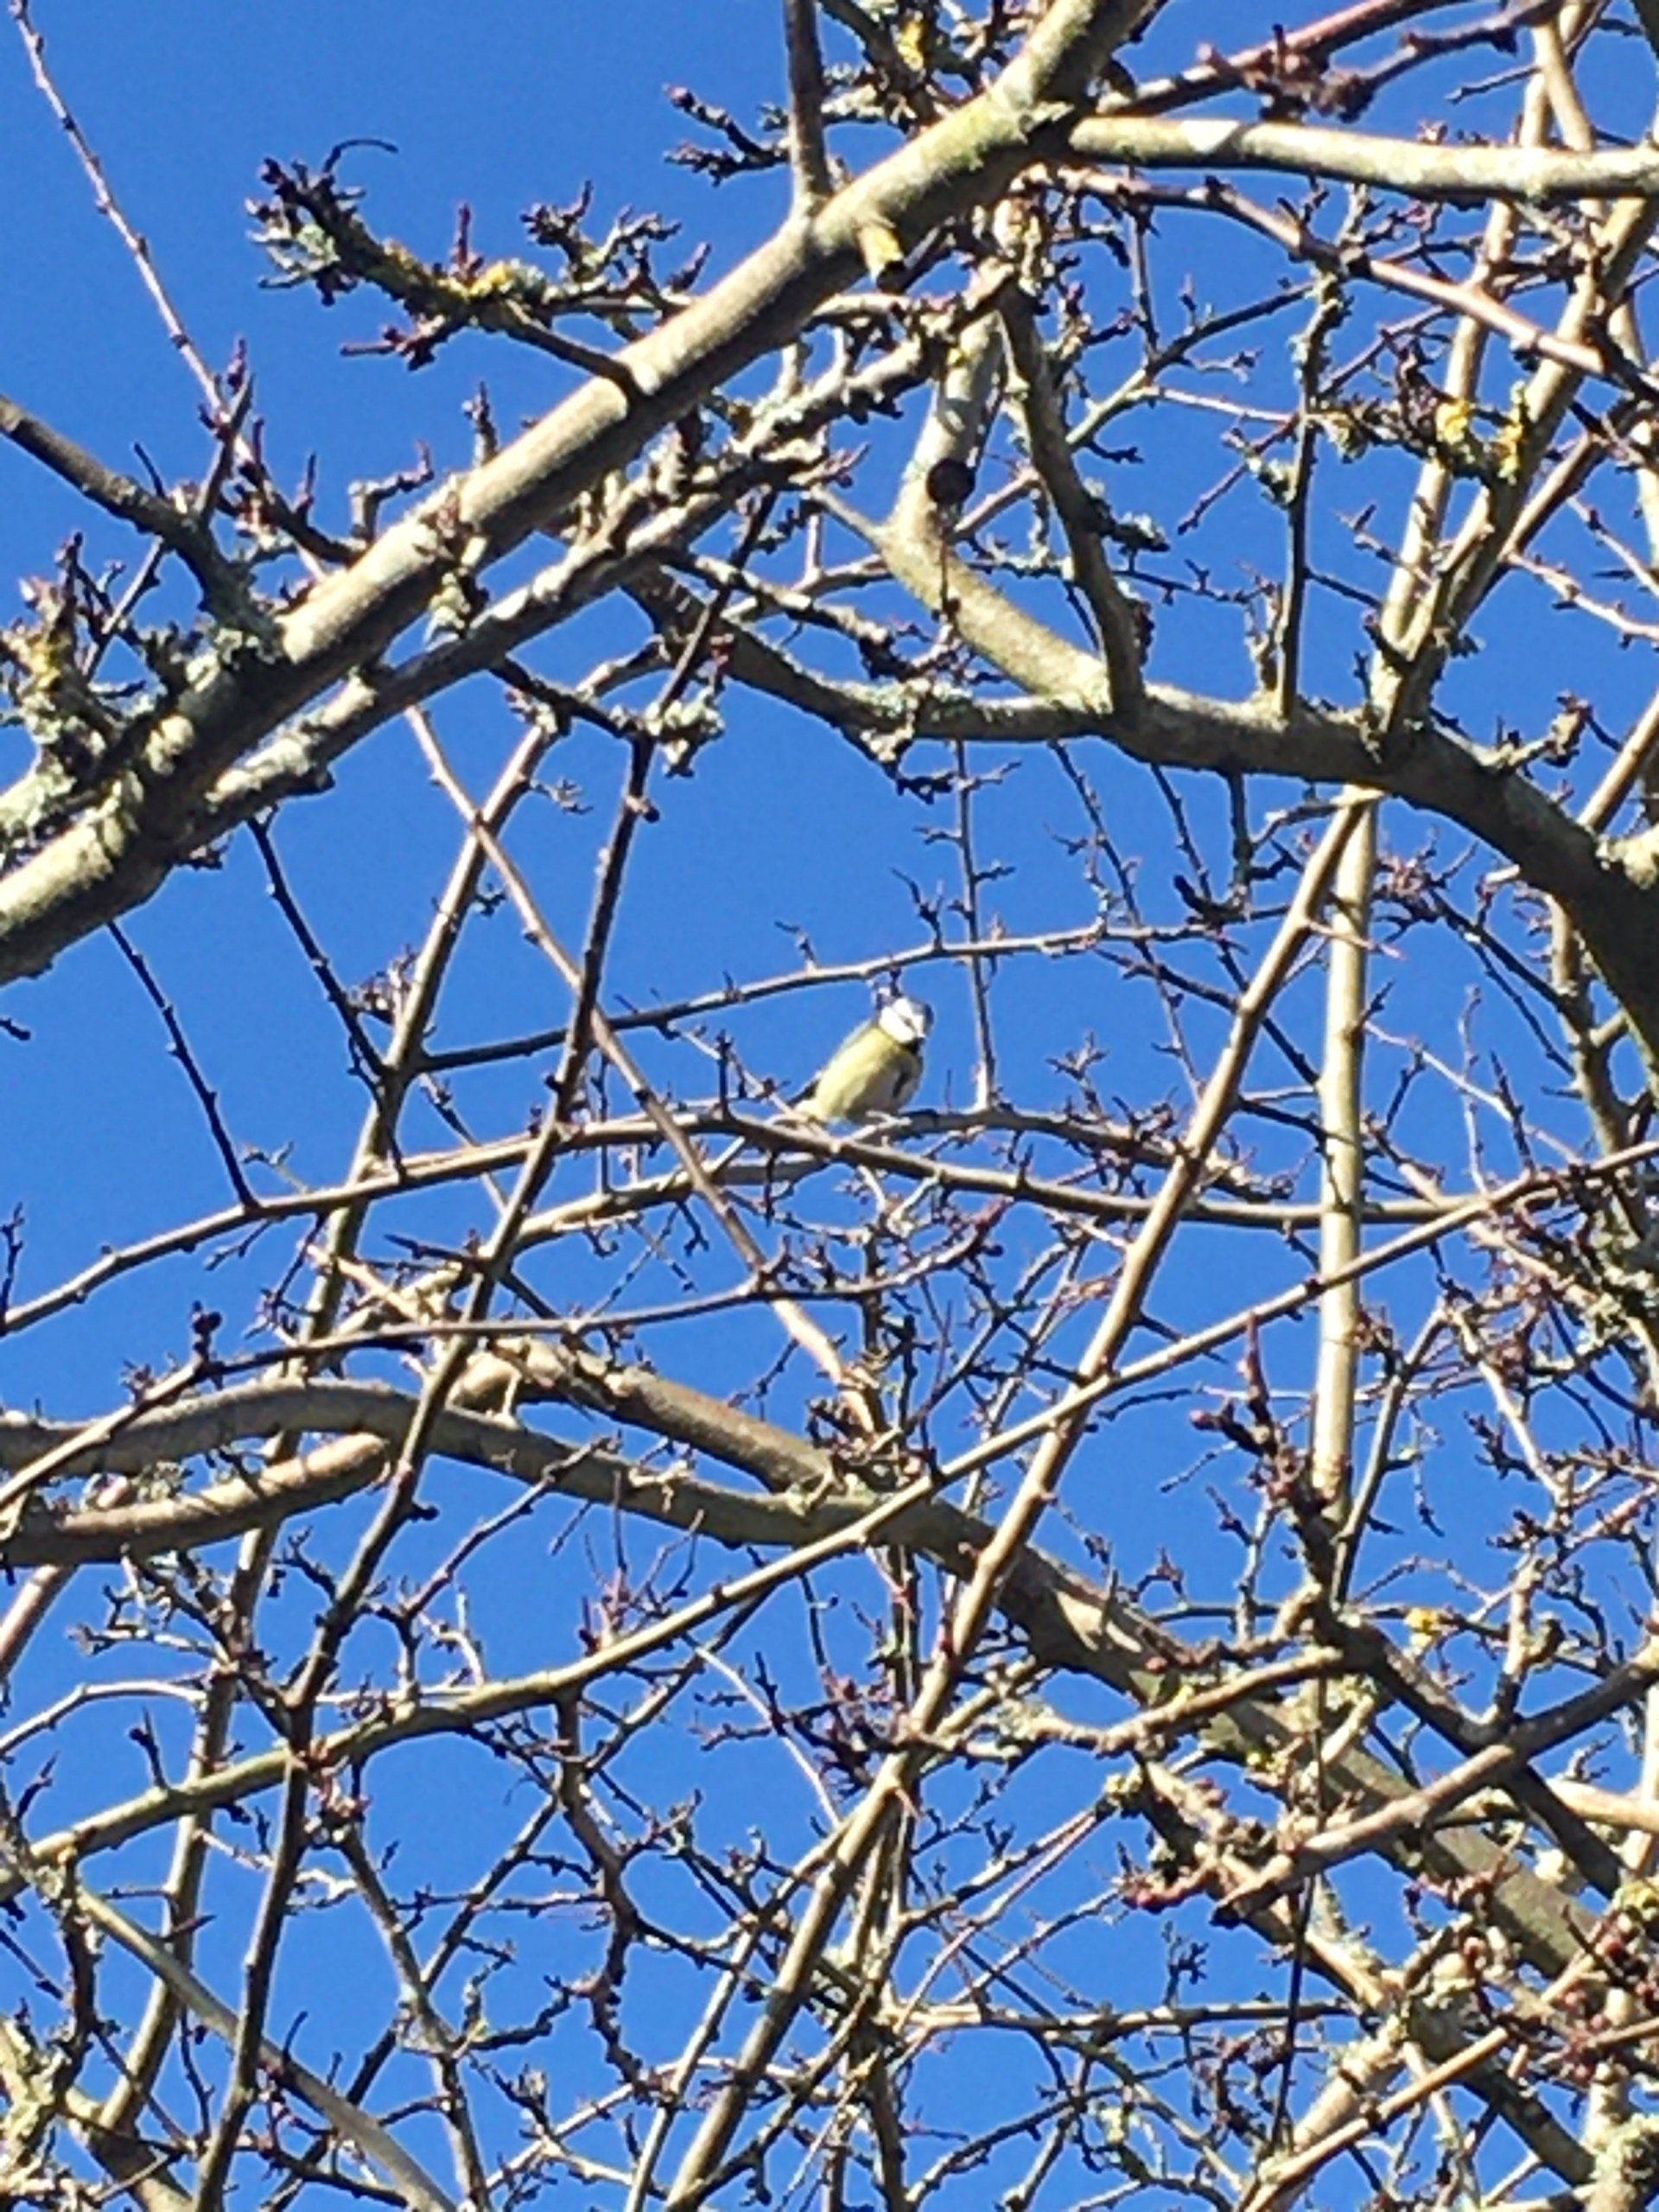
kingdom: Animalia
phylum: Chordata
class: Aves
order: Passeriformes
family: Paridae
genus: Cyanistes
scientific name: Cyanistes caeruleus
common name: Blåmejse
